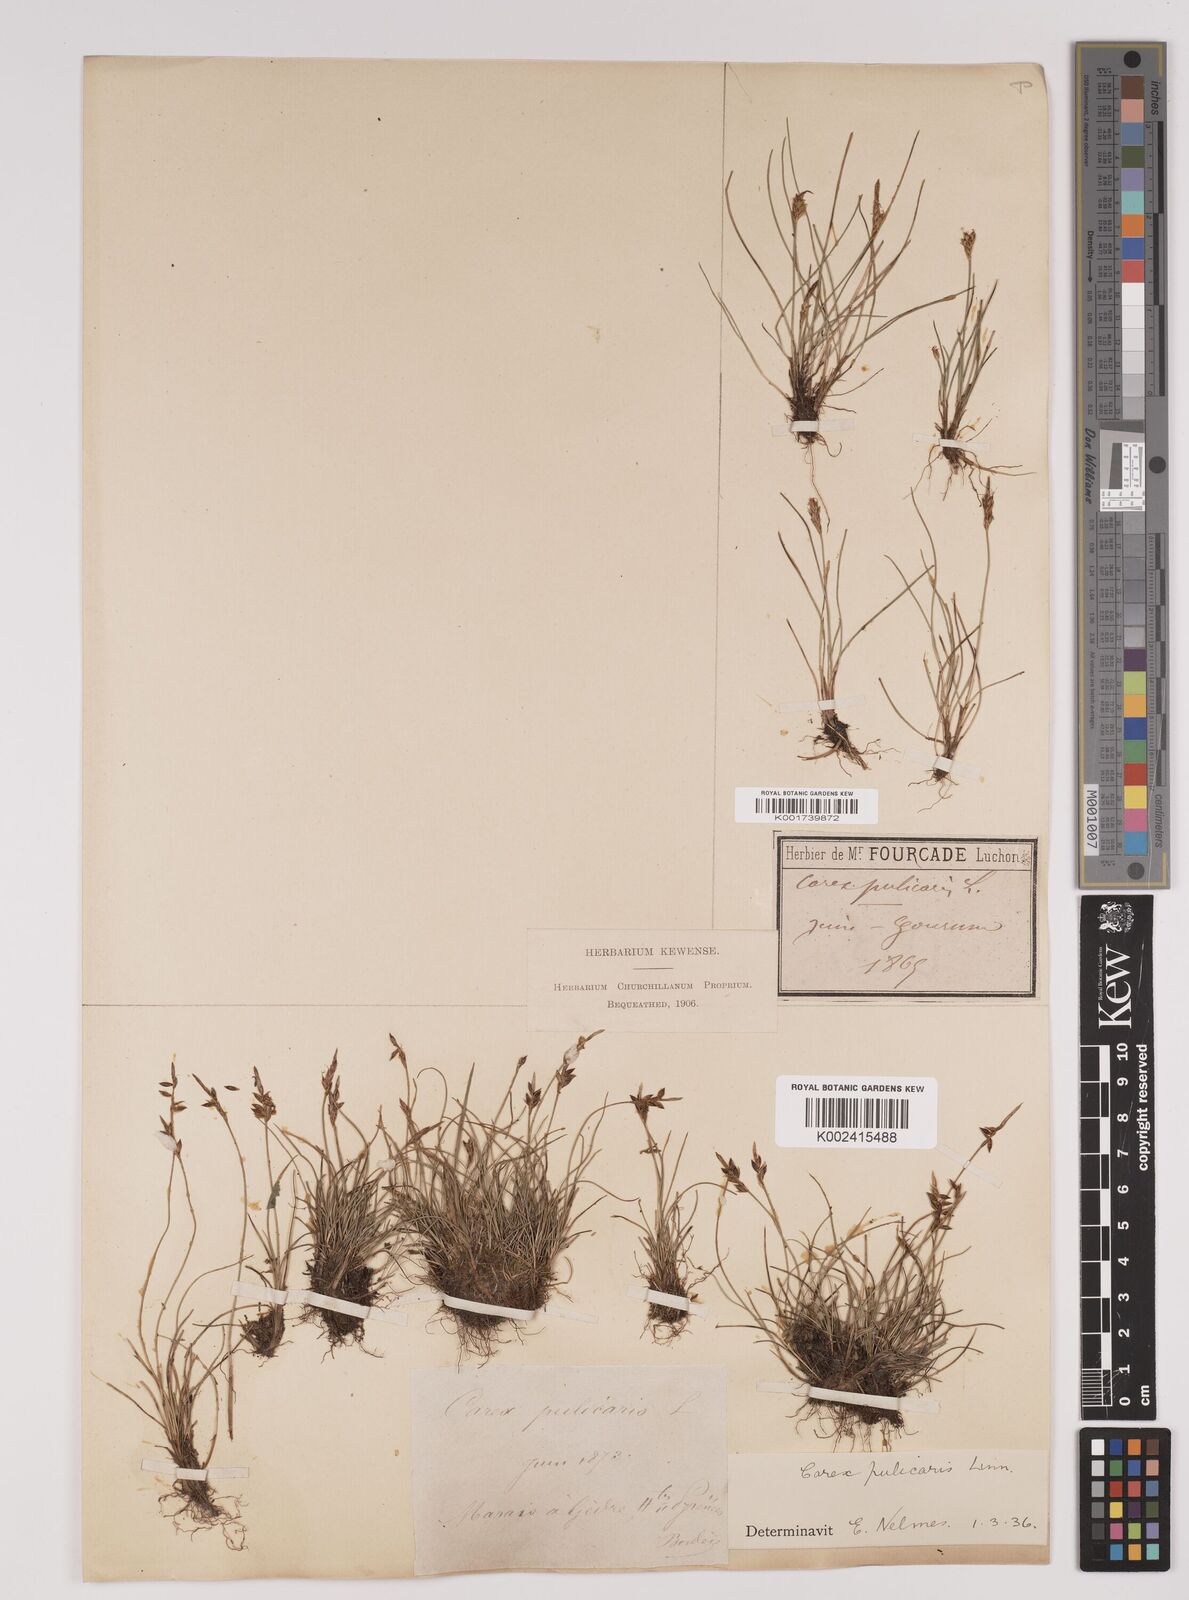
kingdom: Plantae
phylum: Tracheophyta
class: Liliopsida
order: Poales
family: Cyperaceae
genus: Carex
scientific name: Carex pulicaris
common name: Flea sedge
